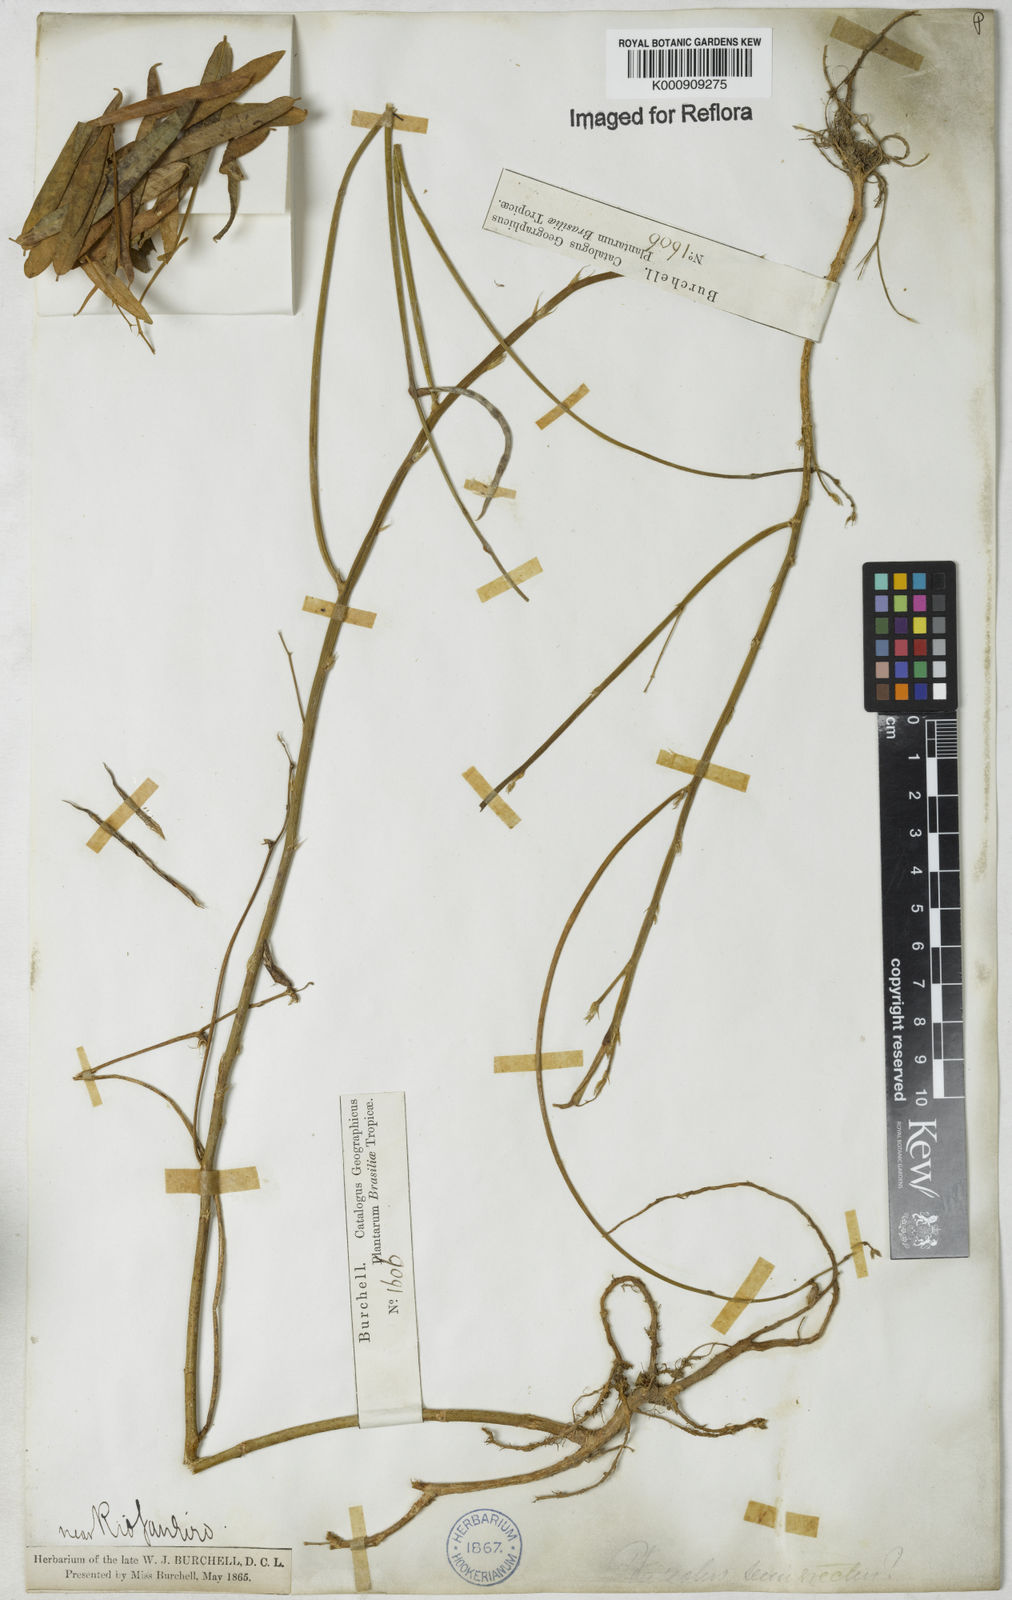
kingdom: Plantae
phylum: Tracheophyta
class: Magnoliopsida
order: Fabales
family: Fabaceae
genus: Macroptilium
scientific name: Macroptilium lathyroides
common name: Wild bushbean
